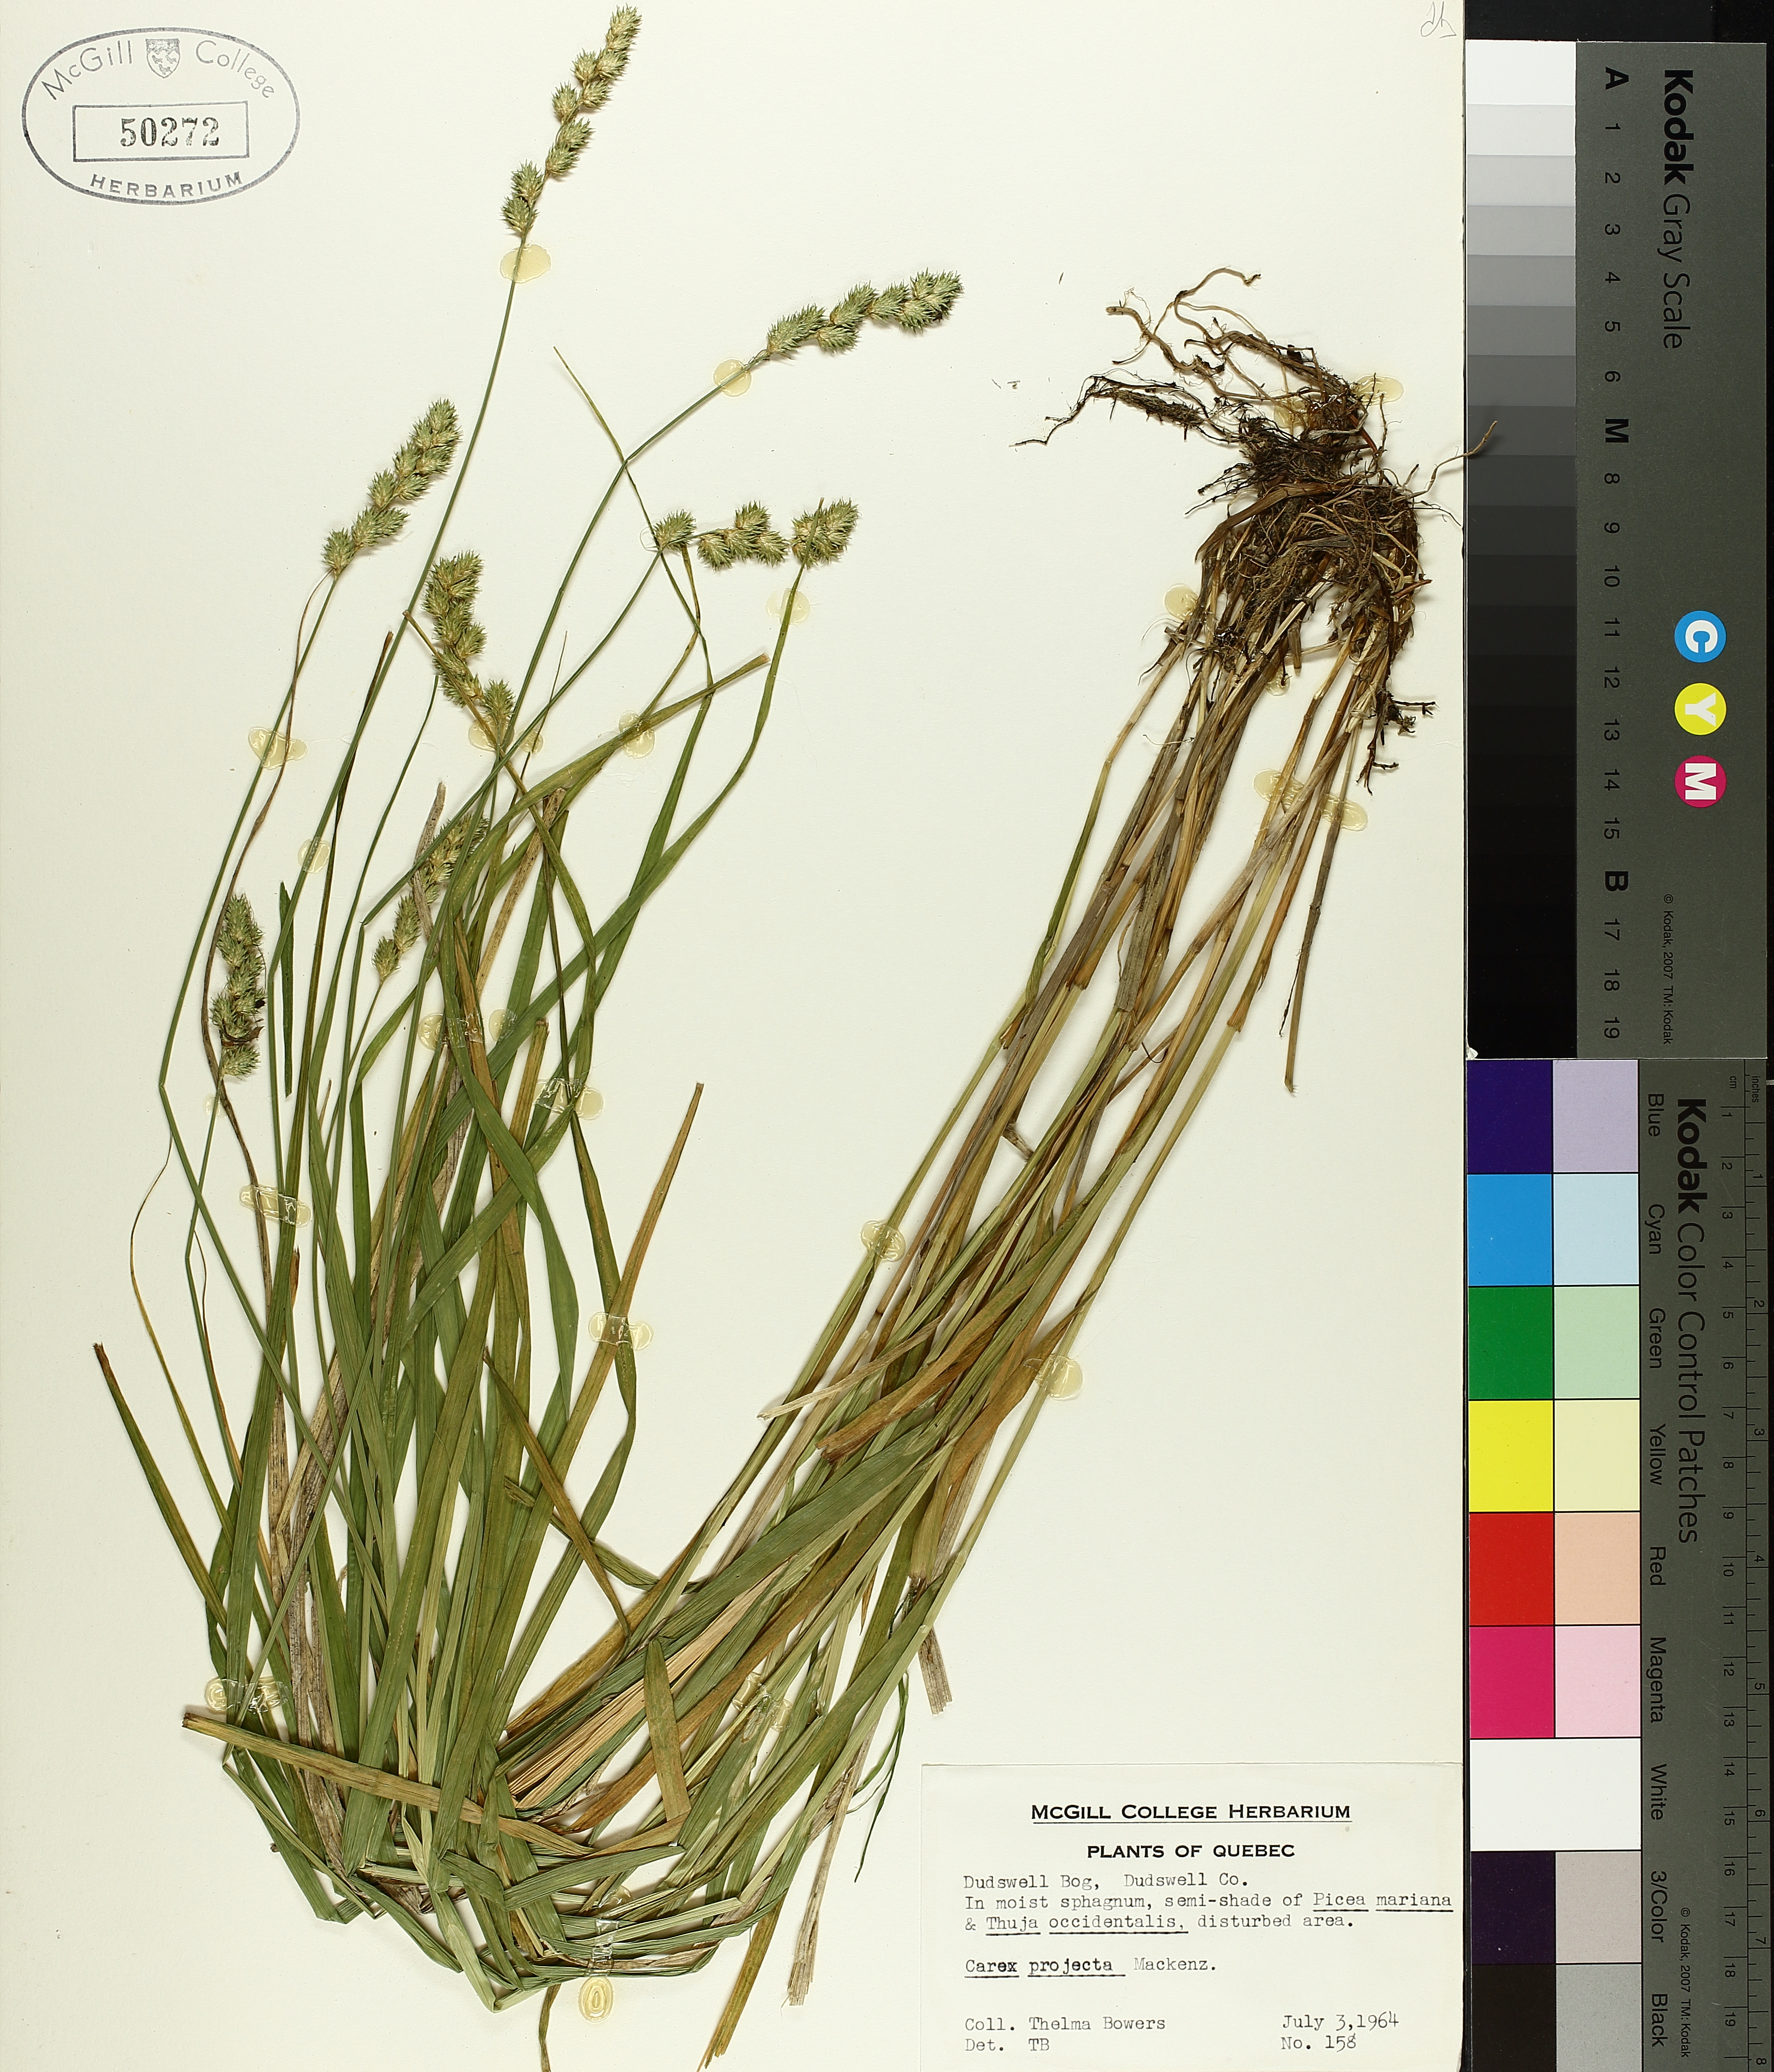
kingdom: Plantae
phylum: Tracheophyta
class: Liliopsida
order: Poales
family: Cyperaceae
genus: Carex
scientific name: Carex projecta
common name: Loose-headed oval sedge
